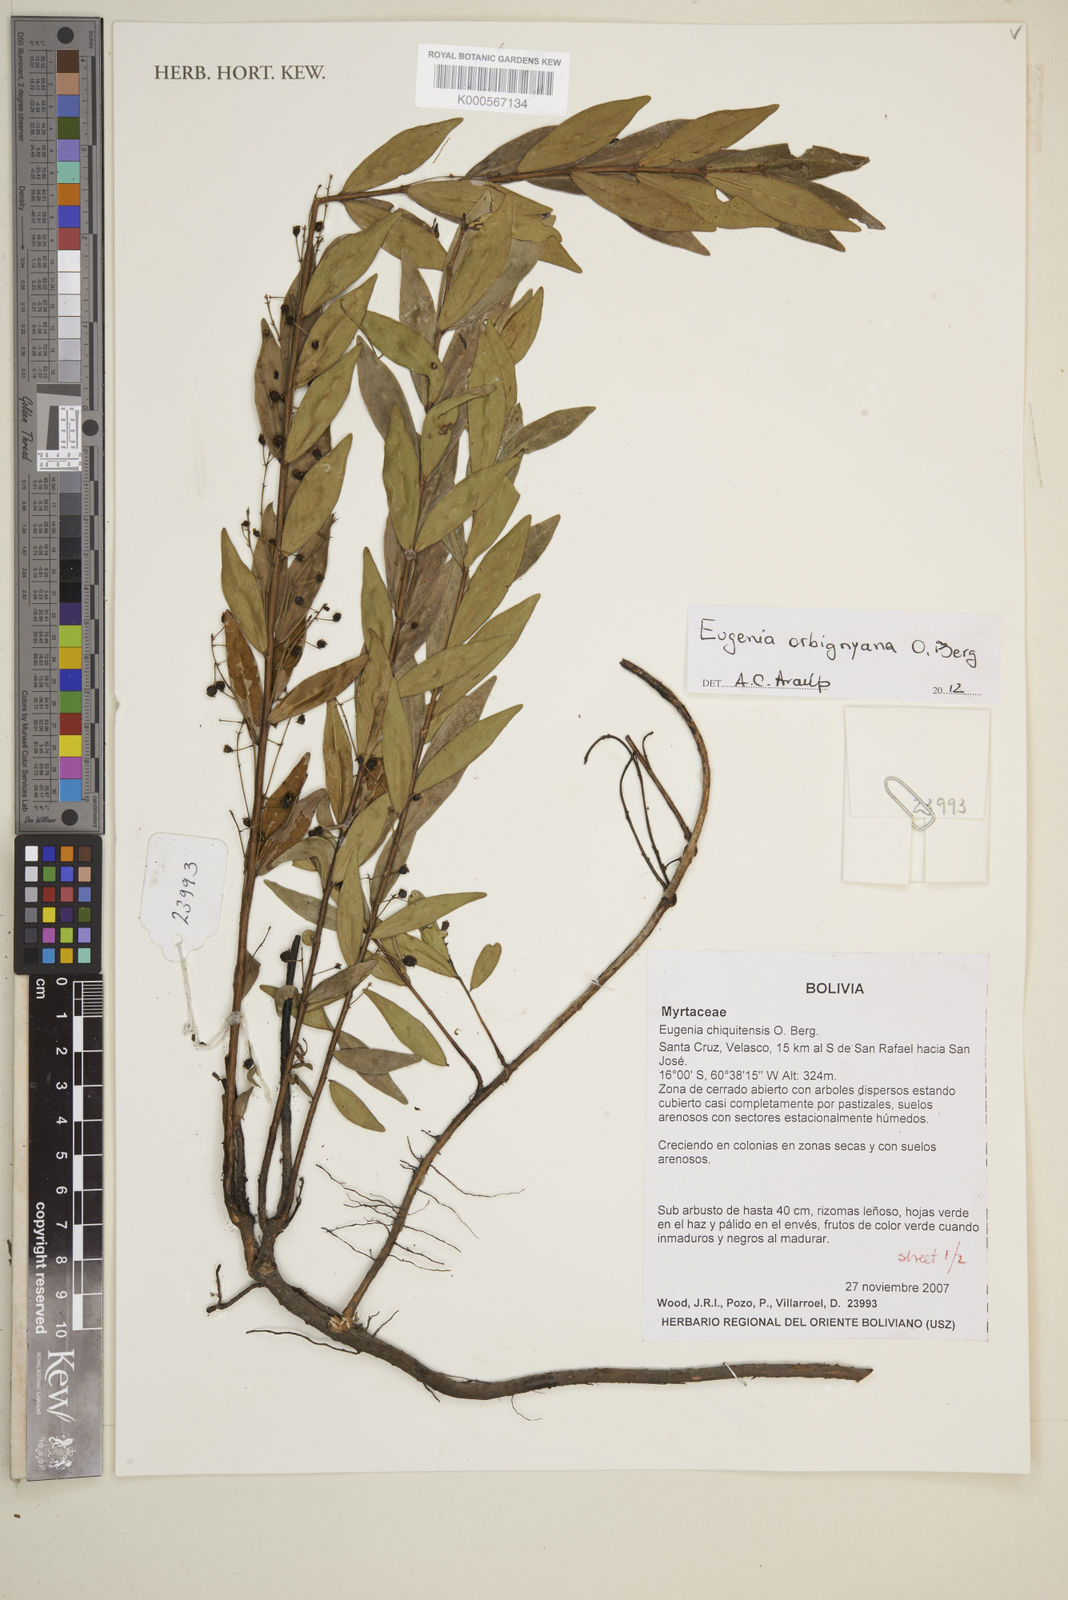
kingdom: Plantae
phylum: Tracheophyta
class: Magnoliopsida
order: Myrtales
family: Myrtaceae
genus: Eugenia
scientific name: Eugenia orbignyana
